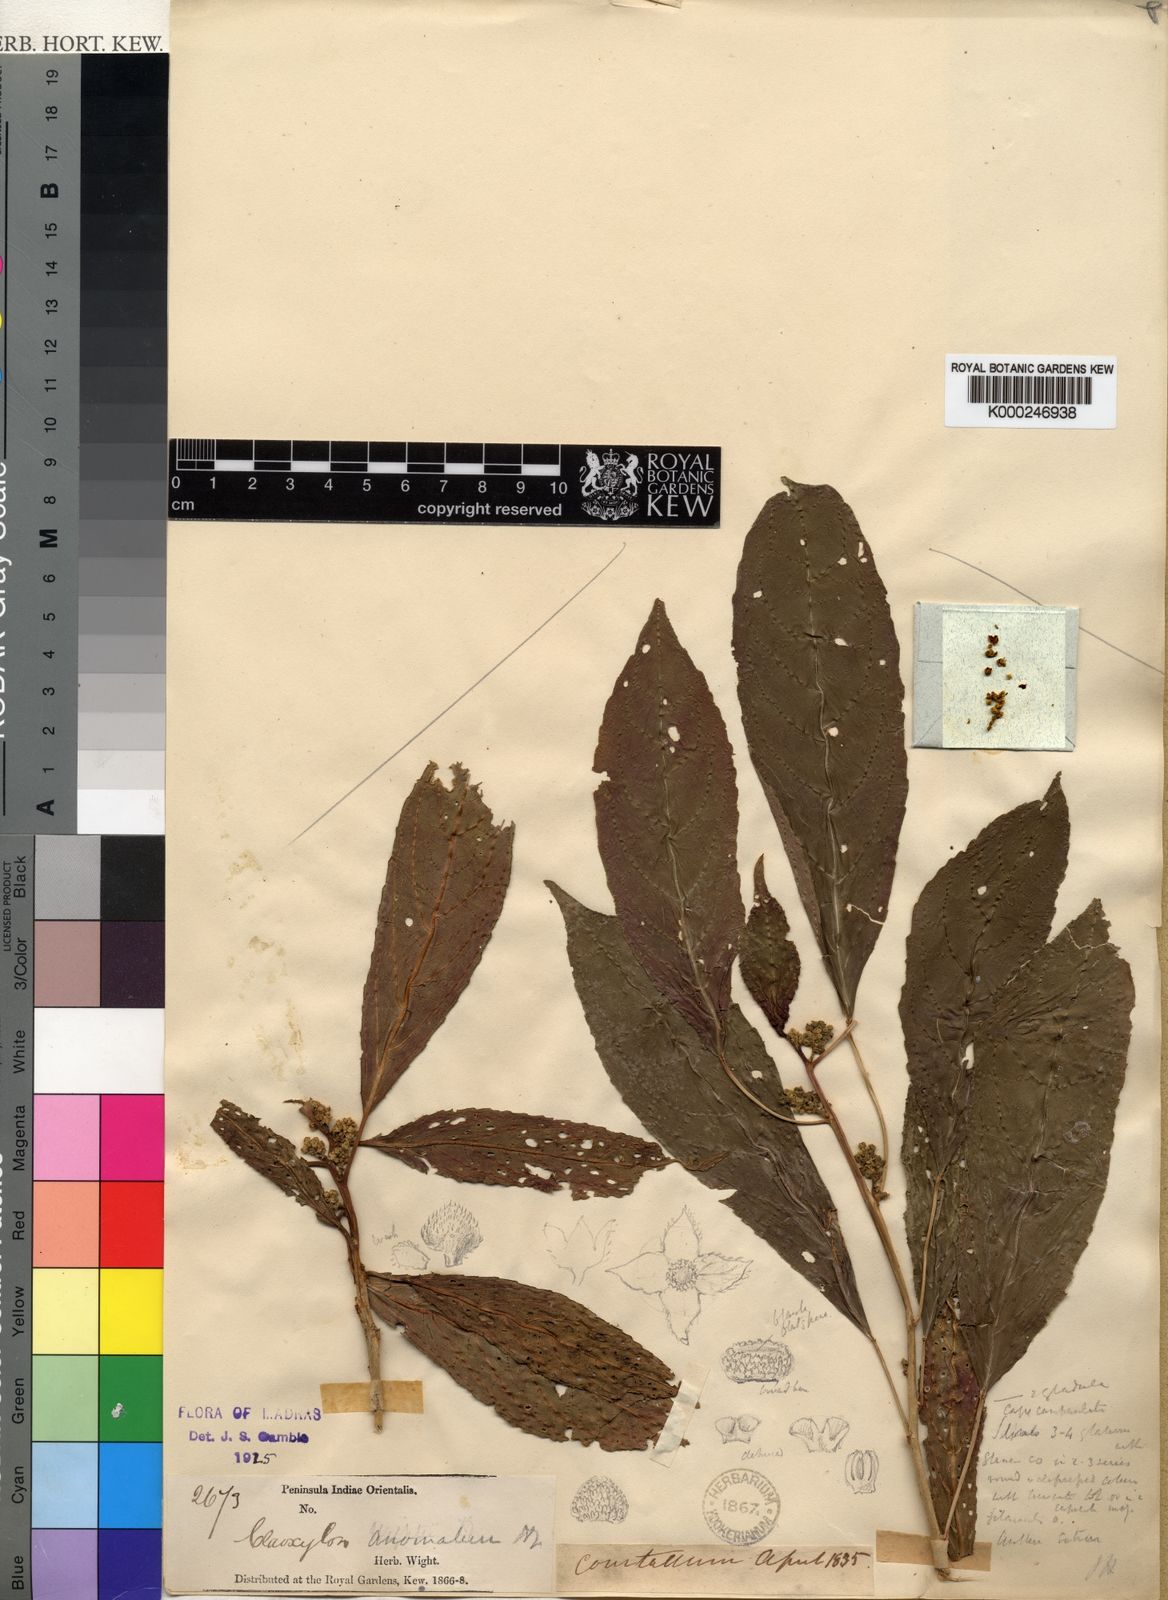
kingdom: Plantae
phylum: Tracheophyta
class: Magnoliopsida
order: Malpighiales
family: Euphorbiaceae
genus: Claoxylon
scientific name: Claoxylon anomalum
